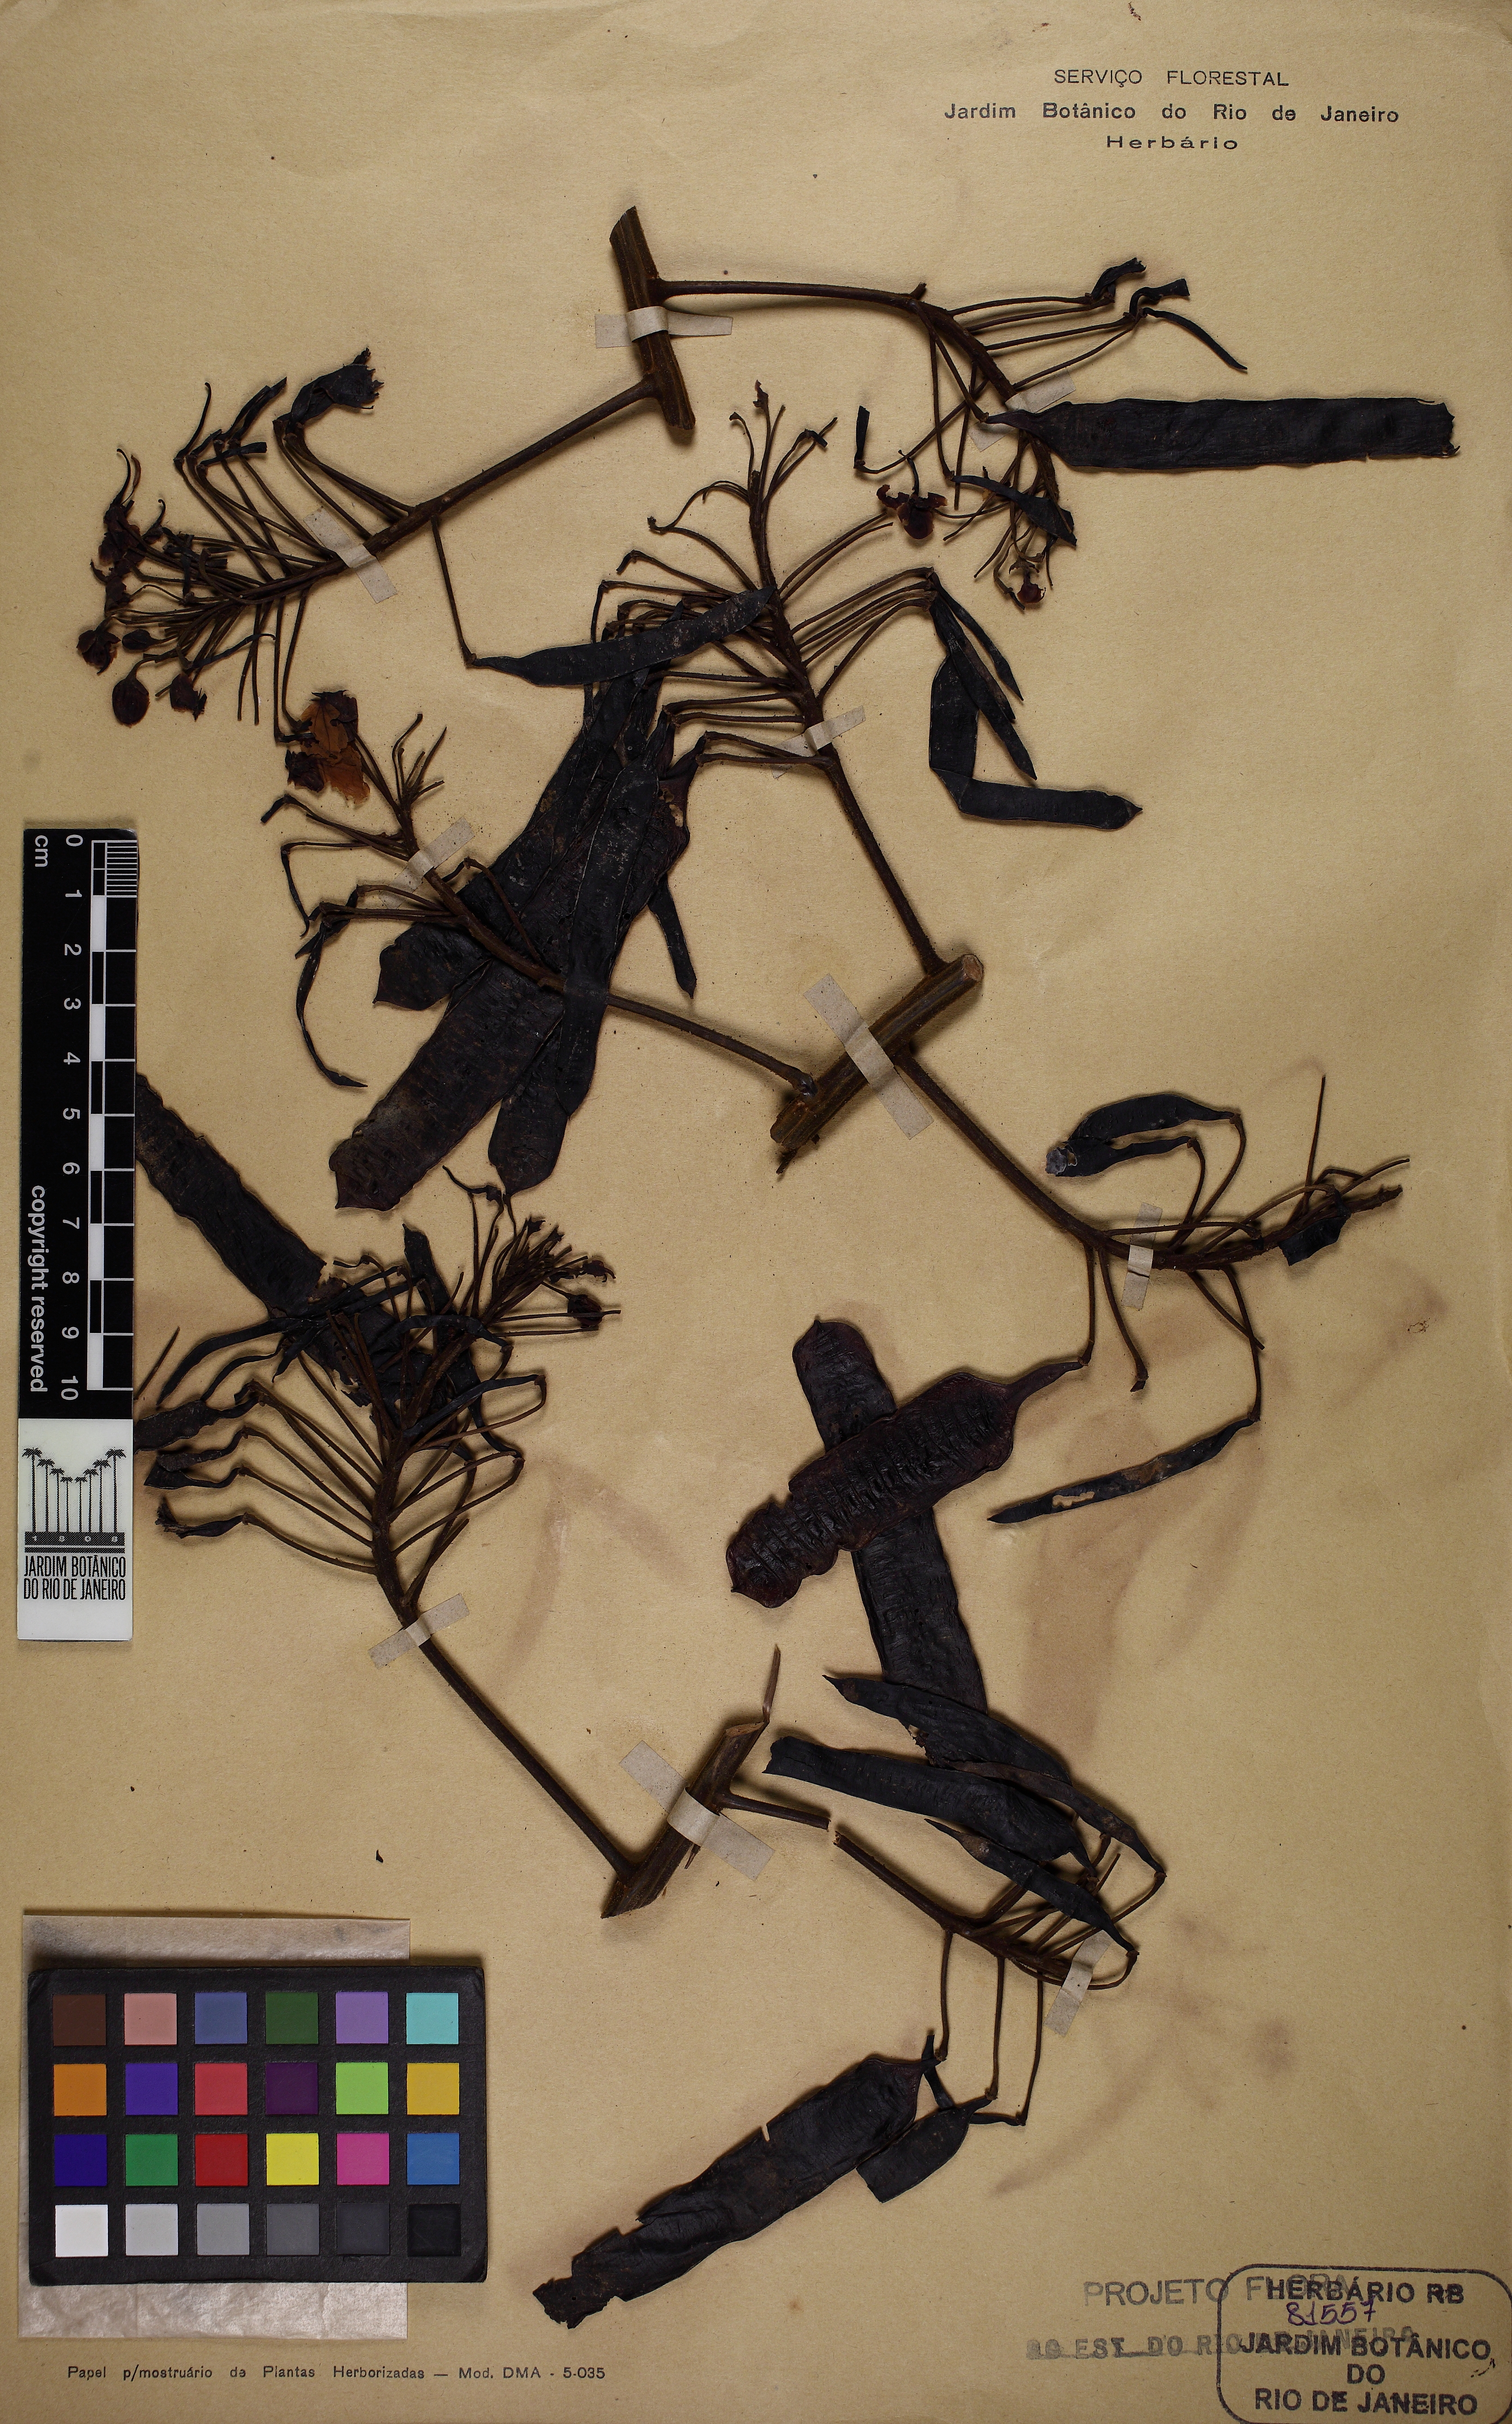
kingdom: Plantae
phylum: Tracheophyta
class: Magnoliopsida
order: Fabales
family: Fabaceae
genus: Senna
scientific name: Senna racemosa
